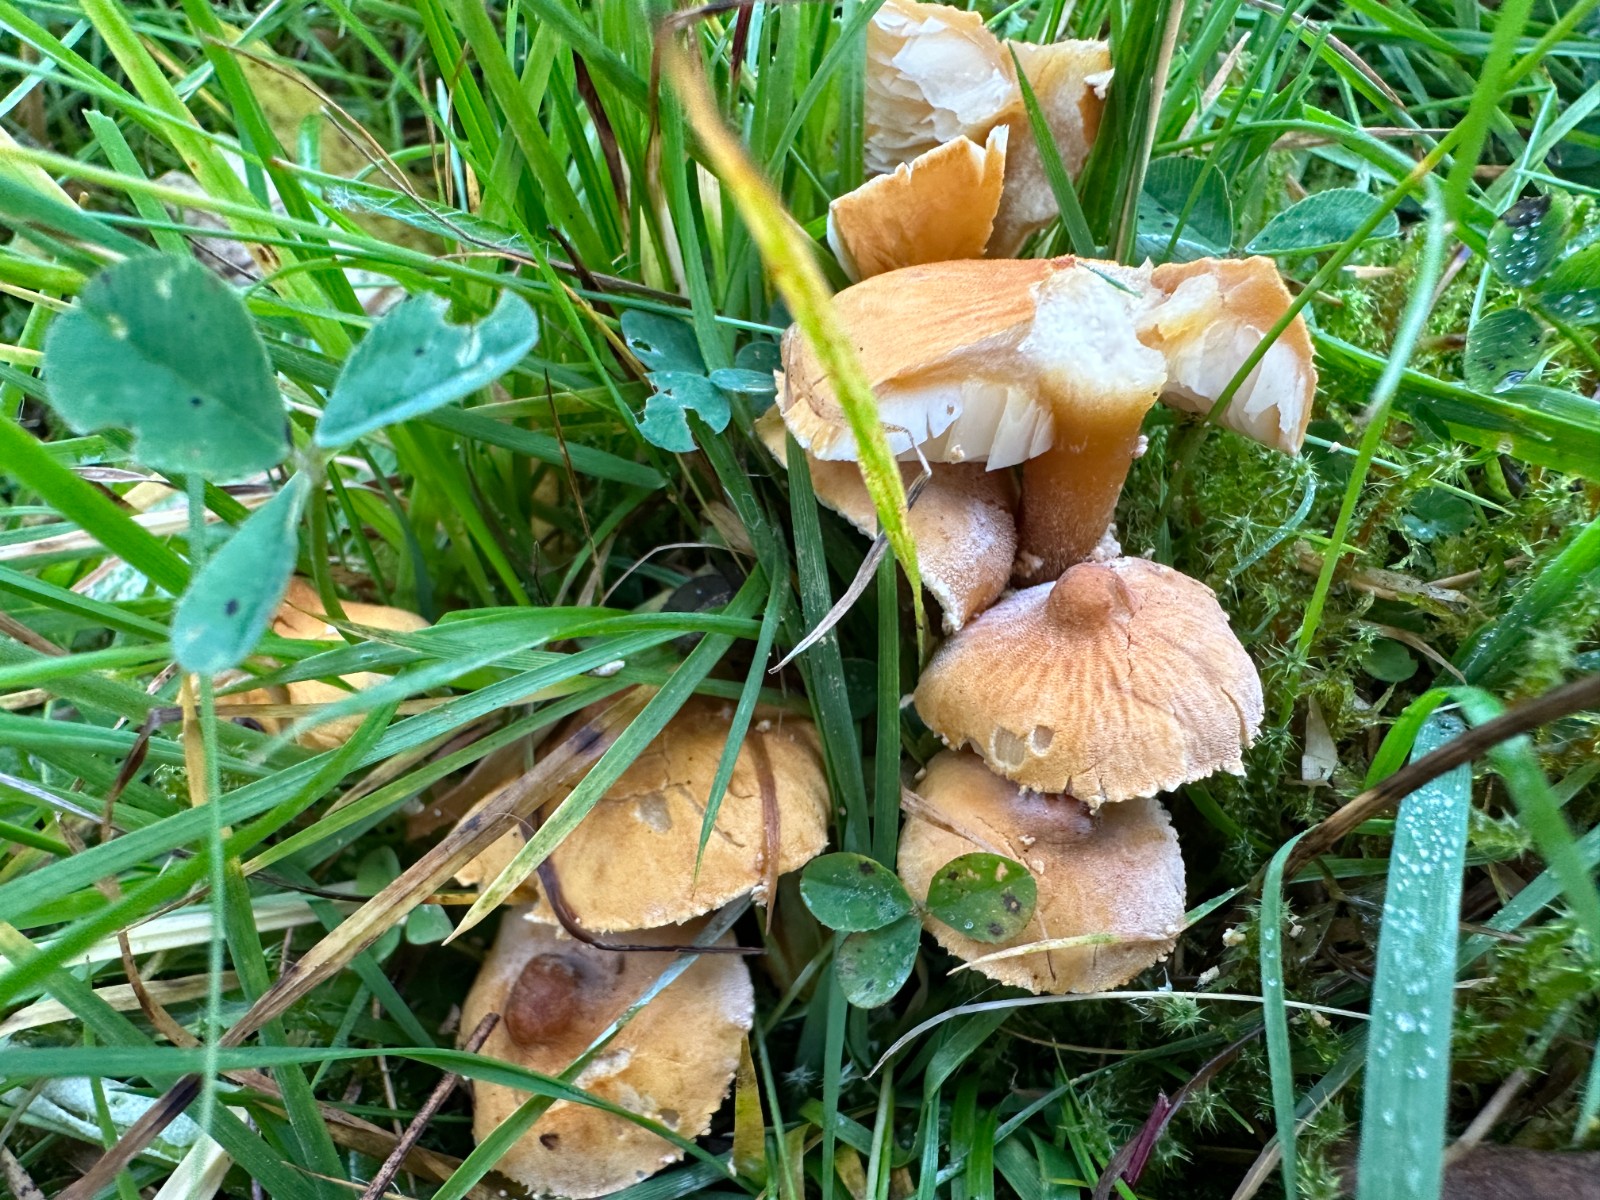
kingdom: Fungi
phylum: Basidiomycota
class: Agaricomycetes
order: Agaricales
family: Tricholomataceae
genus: Cystoderma
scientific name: Cystoderma amianthinum
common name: okkergul grynhat
